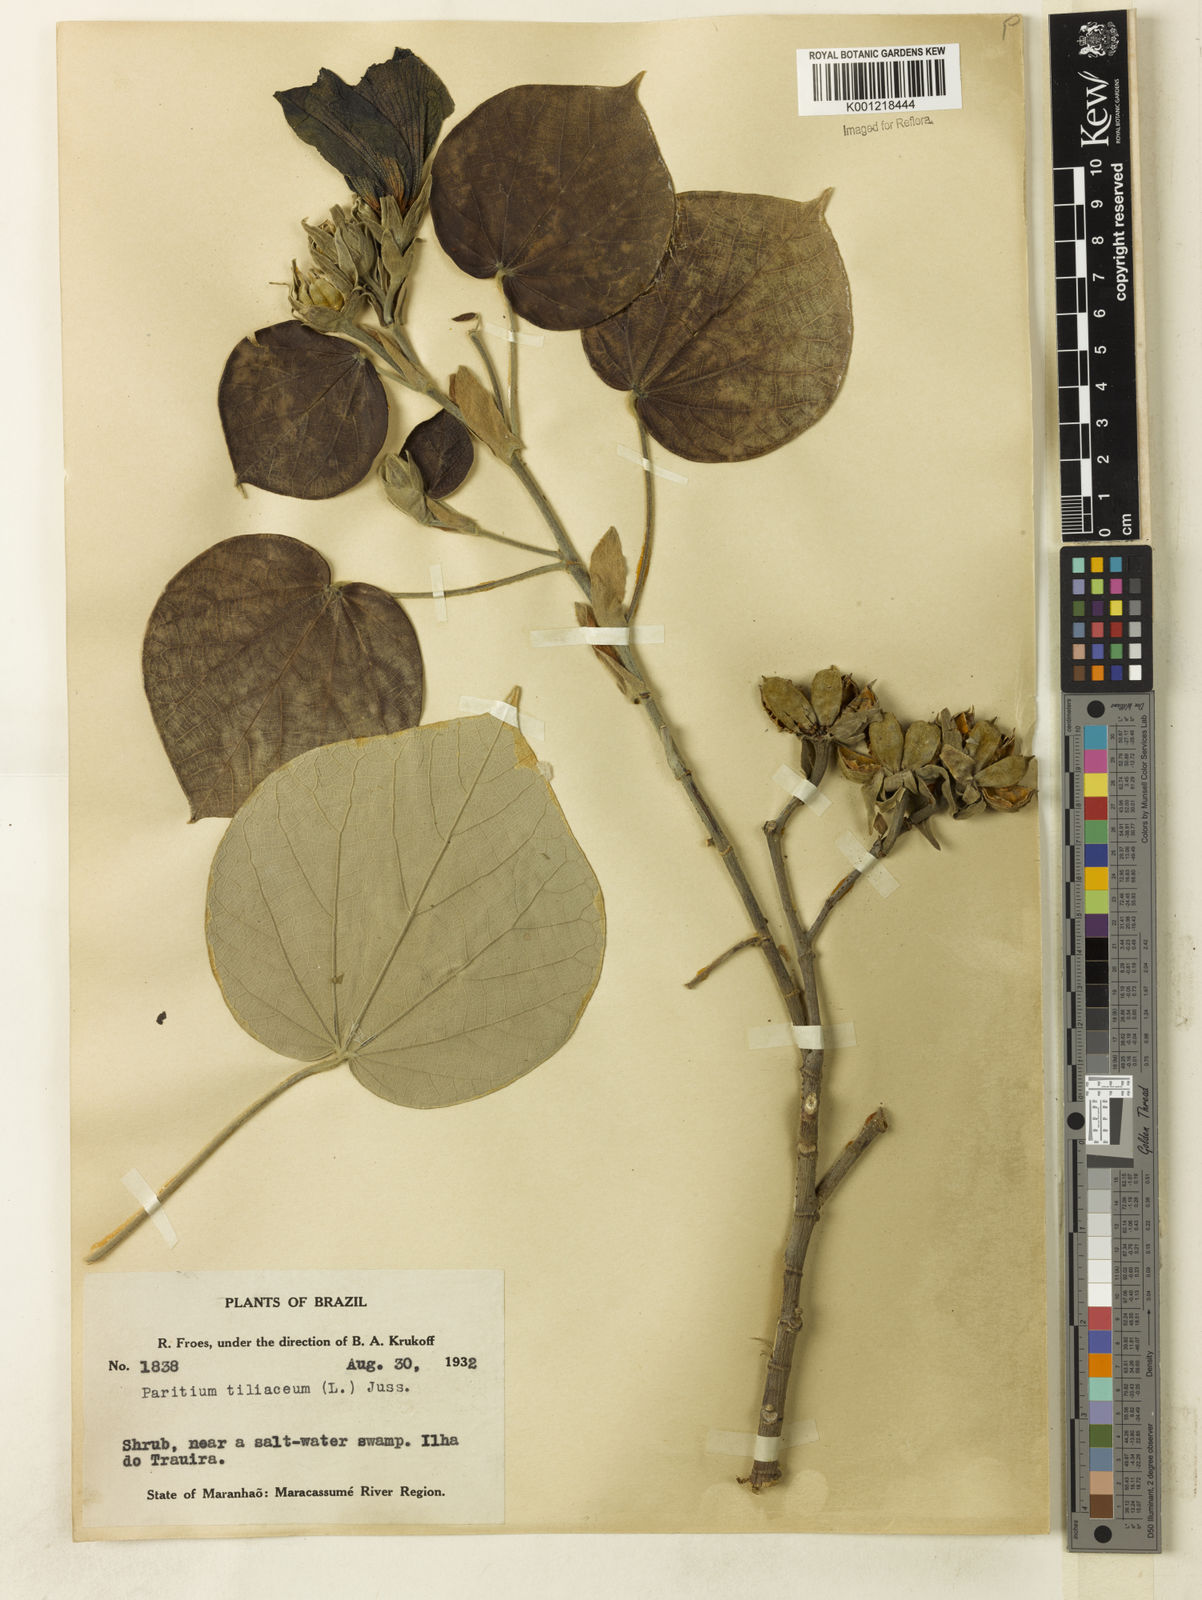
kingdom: Plantae
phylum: Tracheophyta
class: Magnoliopsida
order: Malvales
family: Malvaceae
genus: Hibiscus
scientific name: Hibiscus
